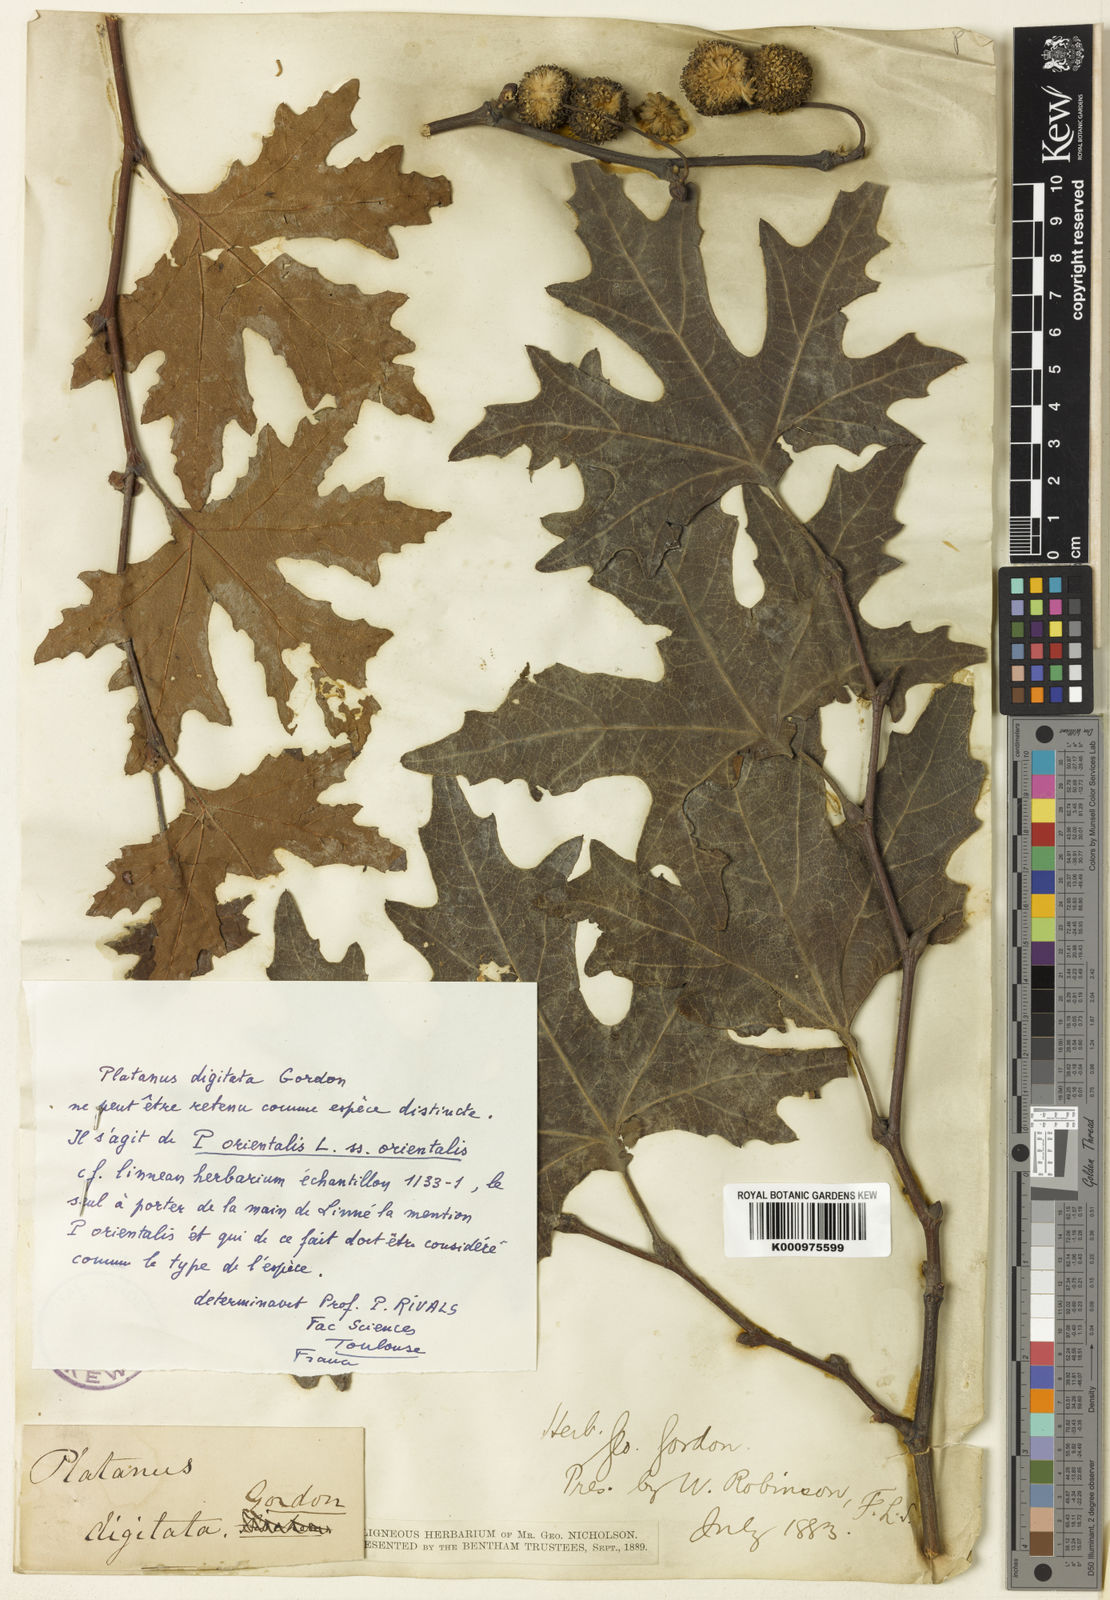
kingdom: Plantae
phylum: Tracheophyta
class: Magnoliopsida
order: Proteales
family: Platanaceae
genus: Platanus
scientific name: Platanus orientalis
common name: Oriental plane
